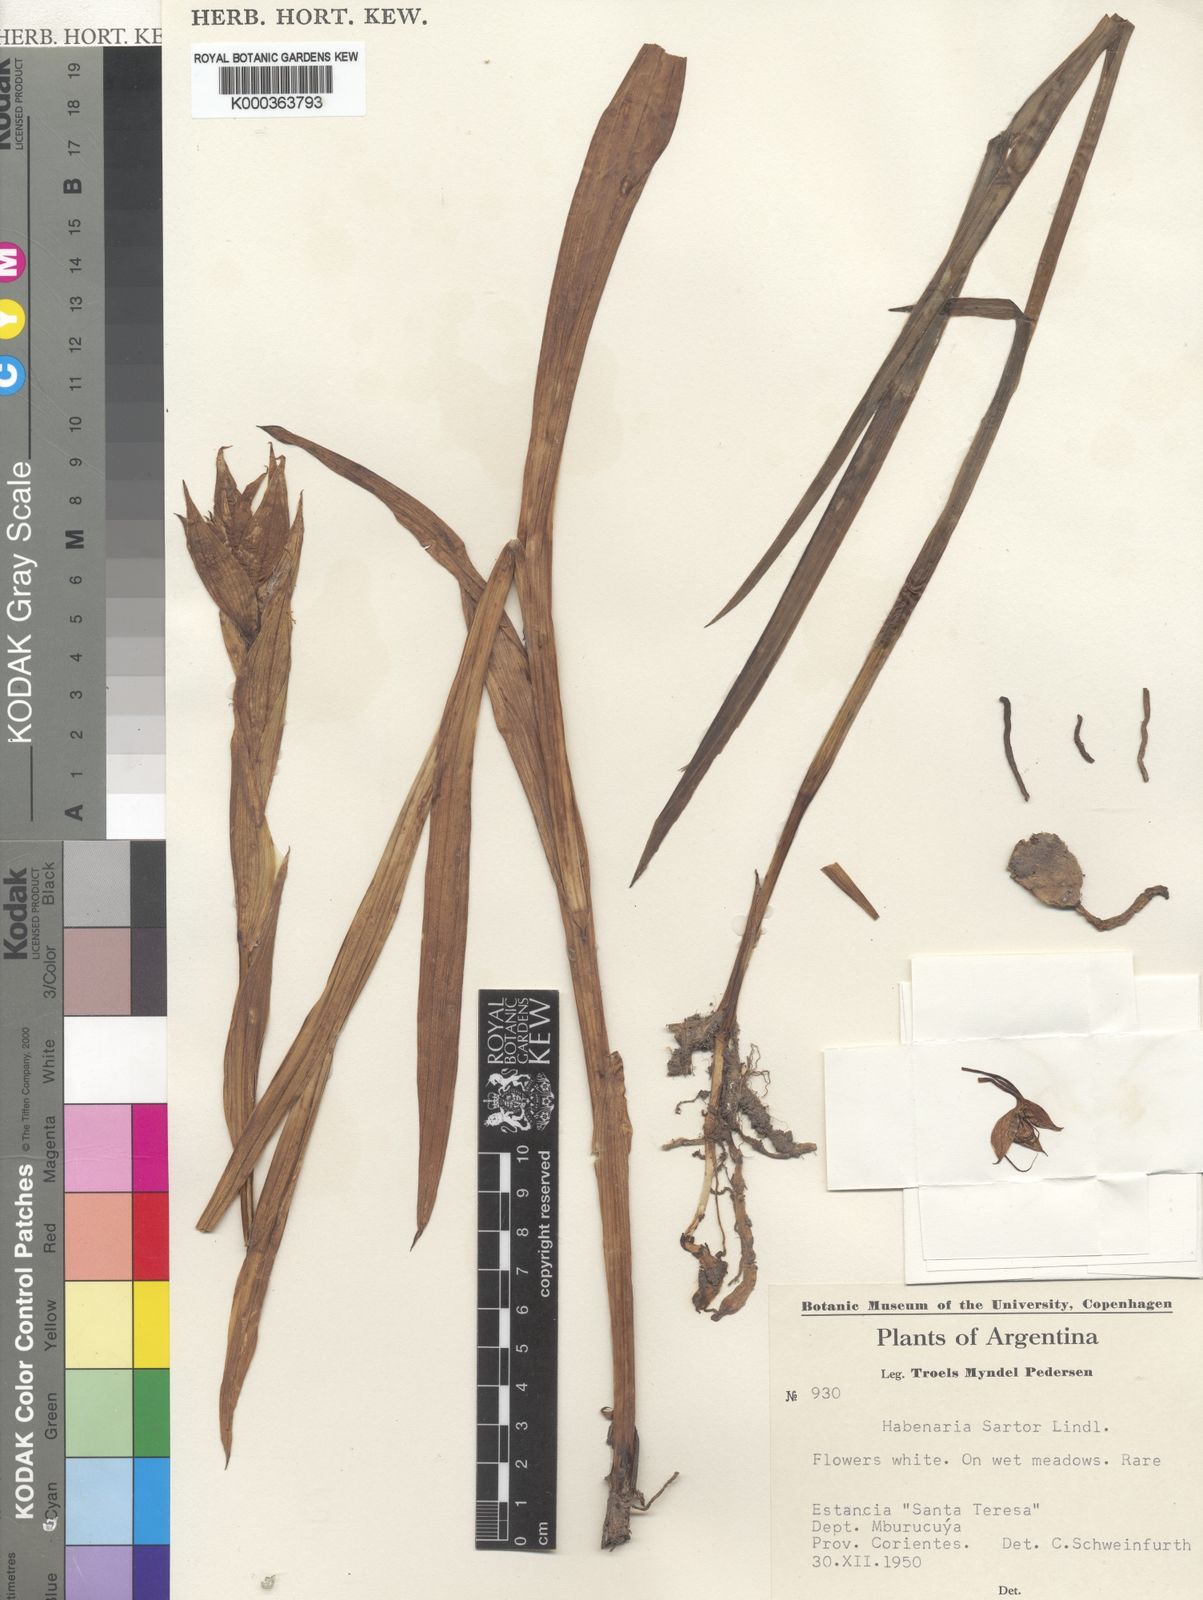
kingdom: Plantae
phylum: Tracheophyta
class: Liliopsida
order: Asparagales
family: Orchidaceae
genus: Habenaria
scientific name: Habenaria sartor
